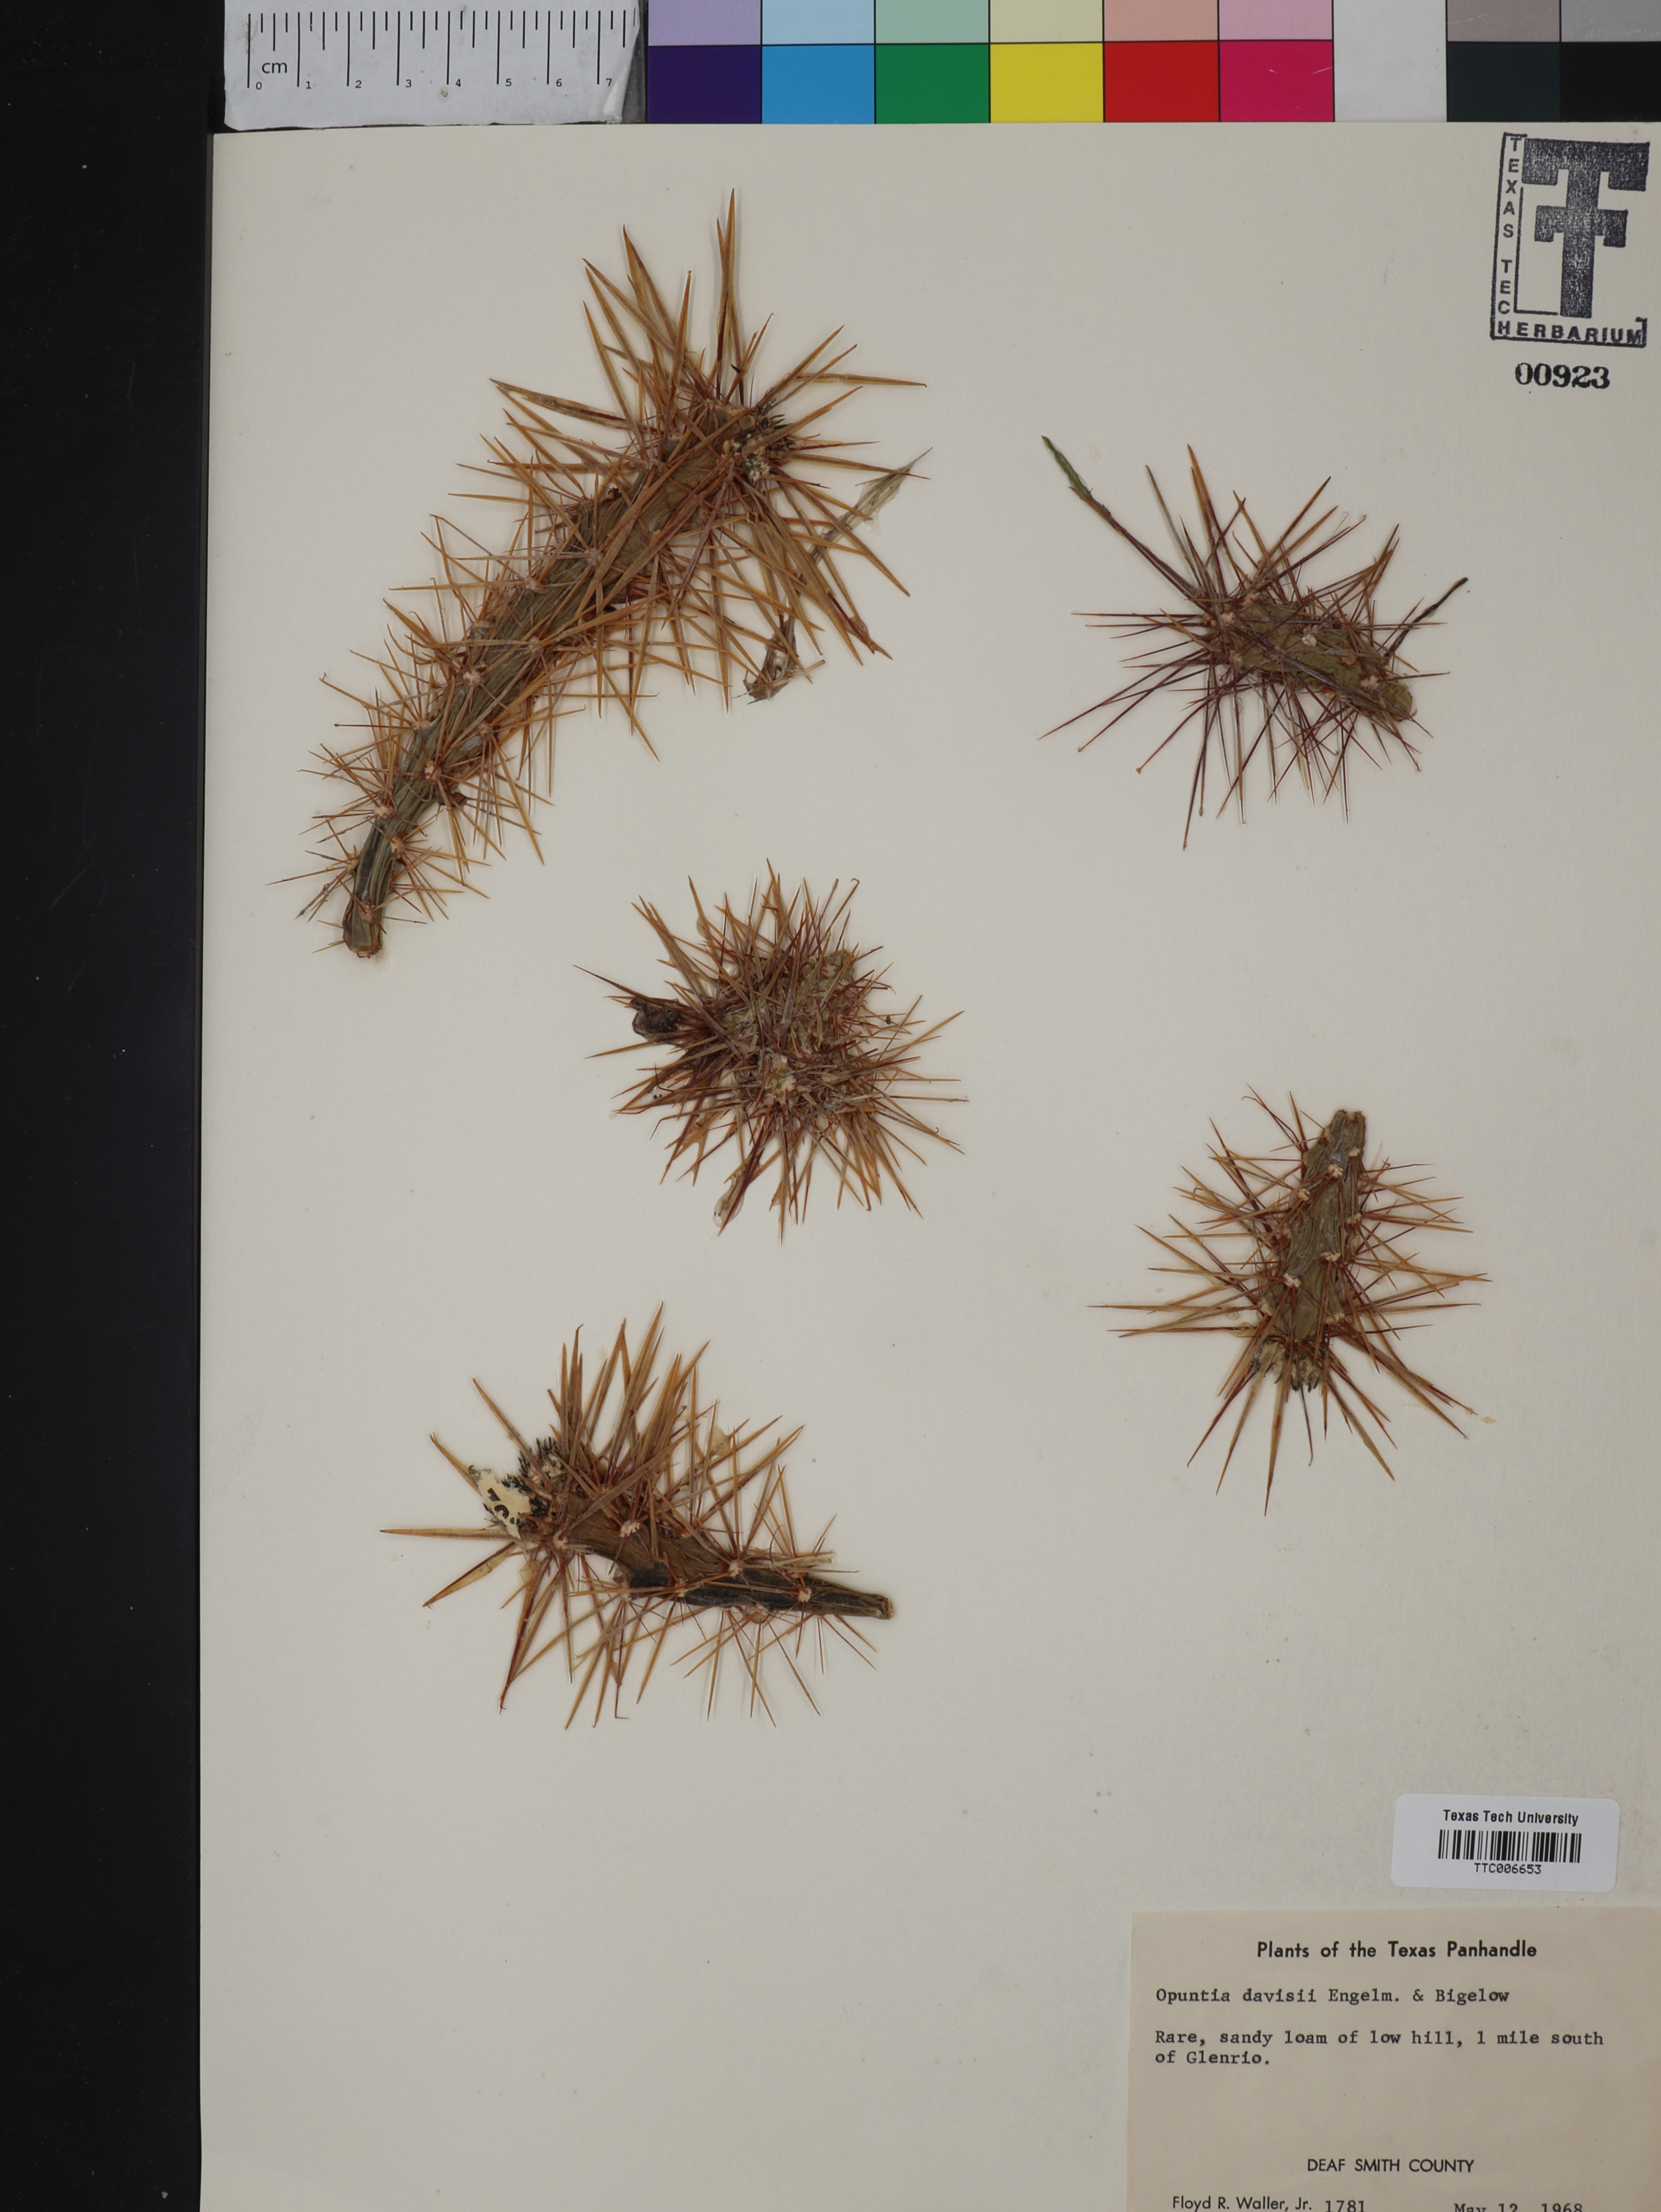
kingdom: Plantae
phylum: Tracheophyta
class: Magnoliopsida
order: Caryophyllales
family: Cactaceae
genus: Cylindropuntia
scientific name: Cylindropuntia davisii
